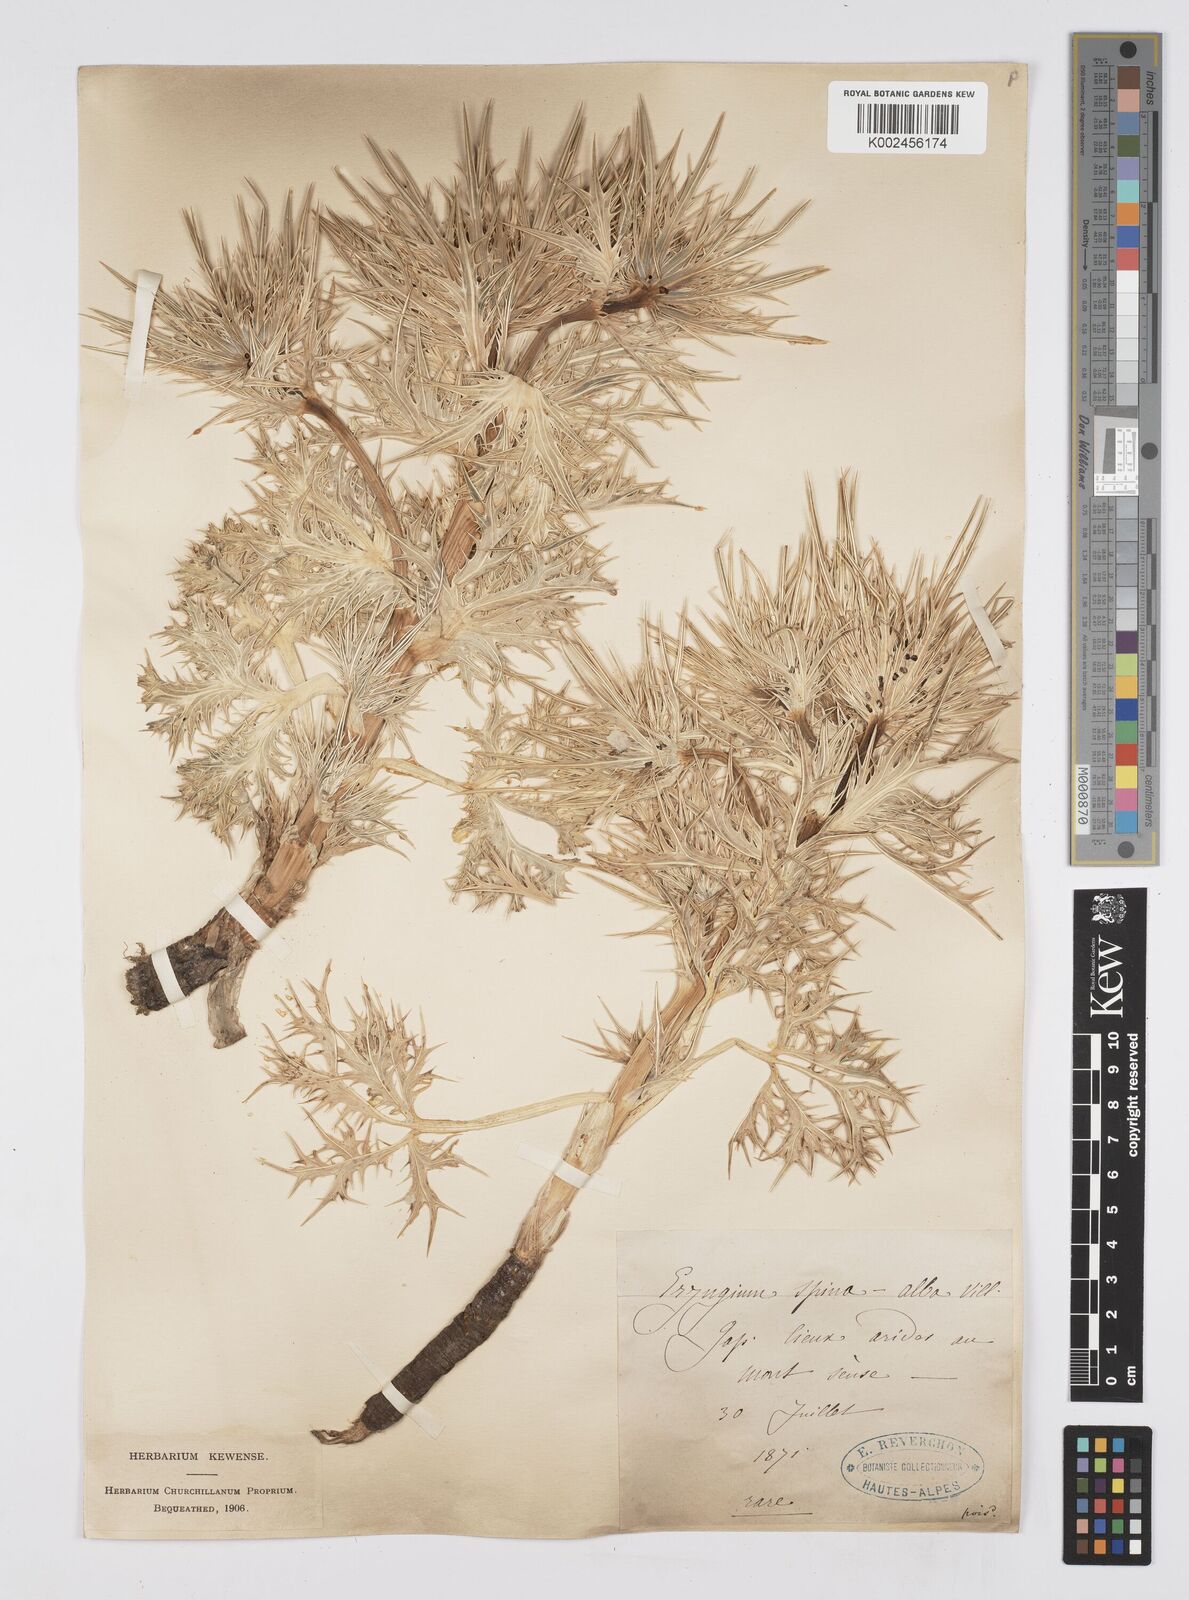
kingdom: Plantae
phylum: Tracheophyta
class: Magnoliopsida
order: Apiales
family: Apiaceae
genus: Eryngium
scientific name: Eryngium spinalba
